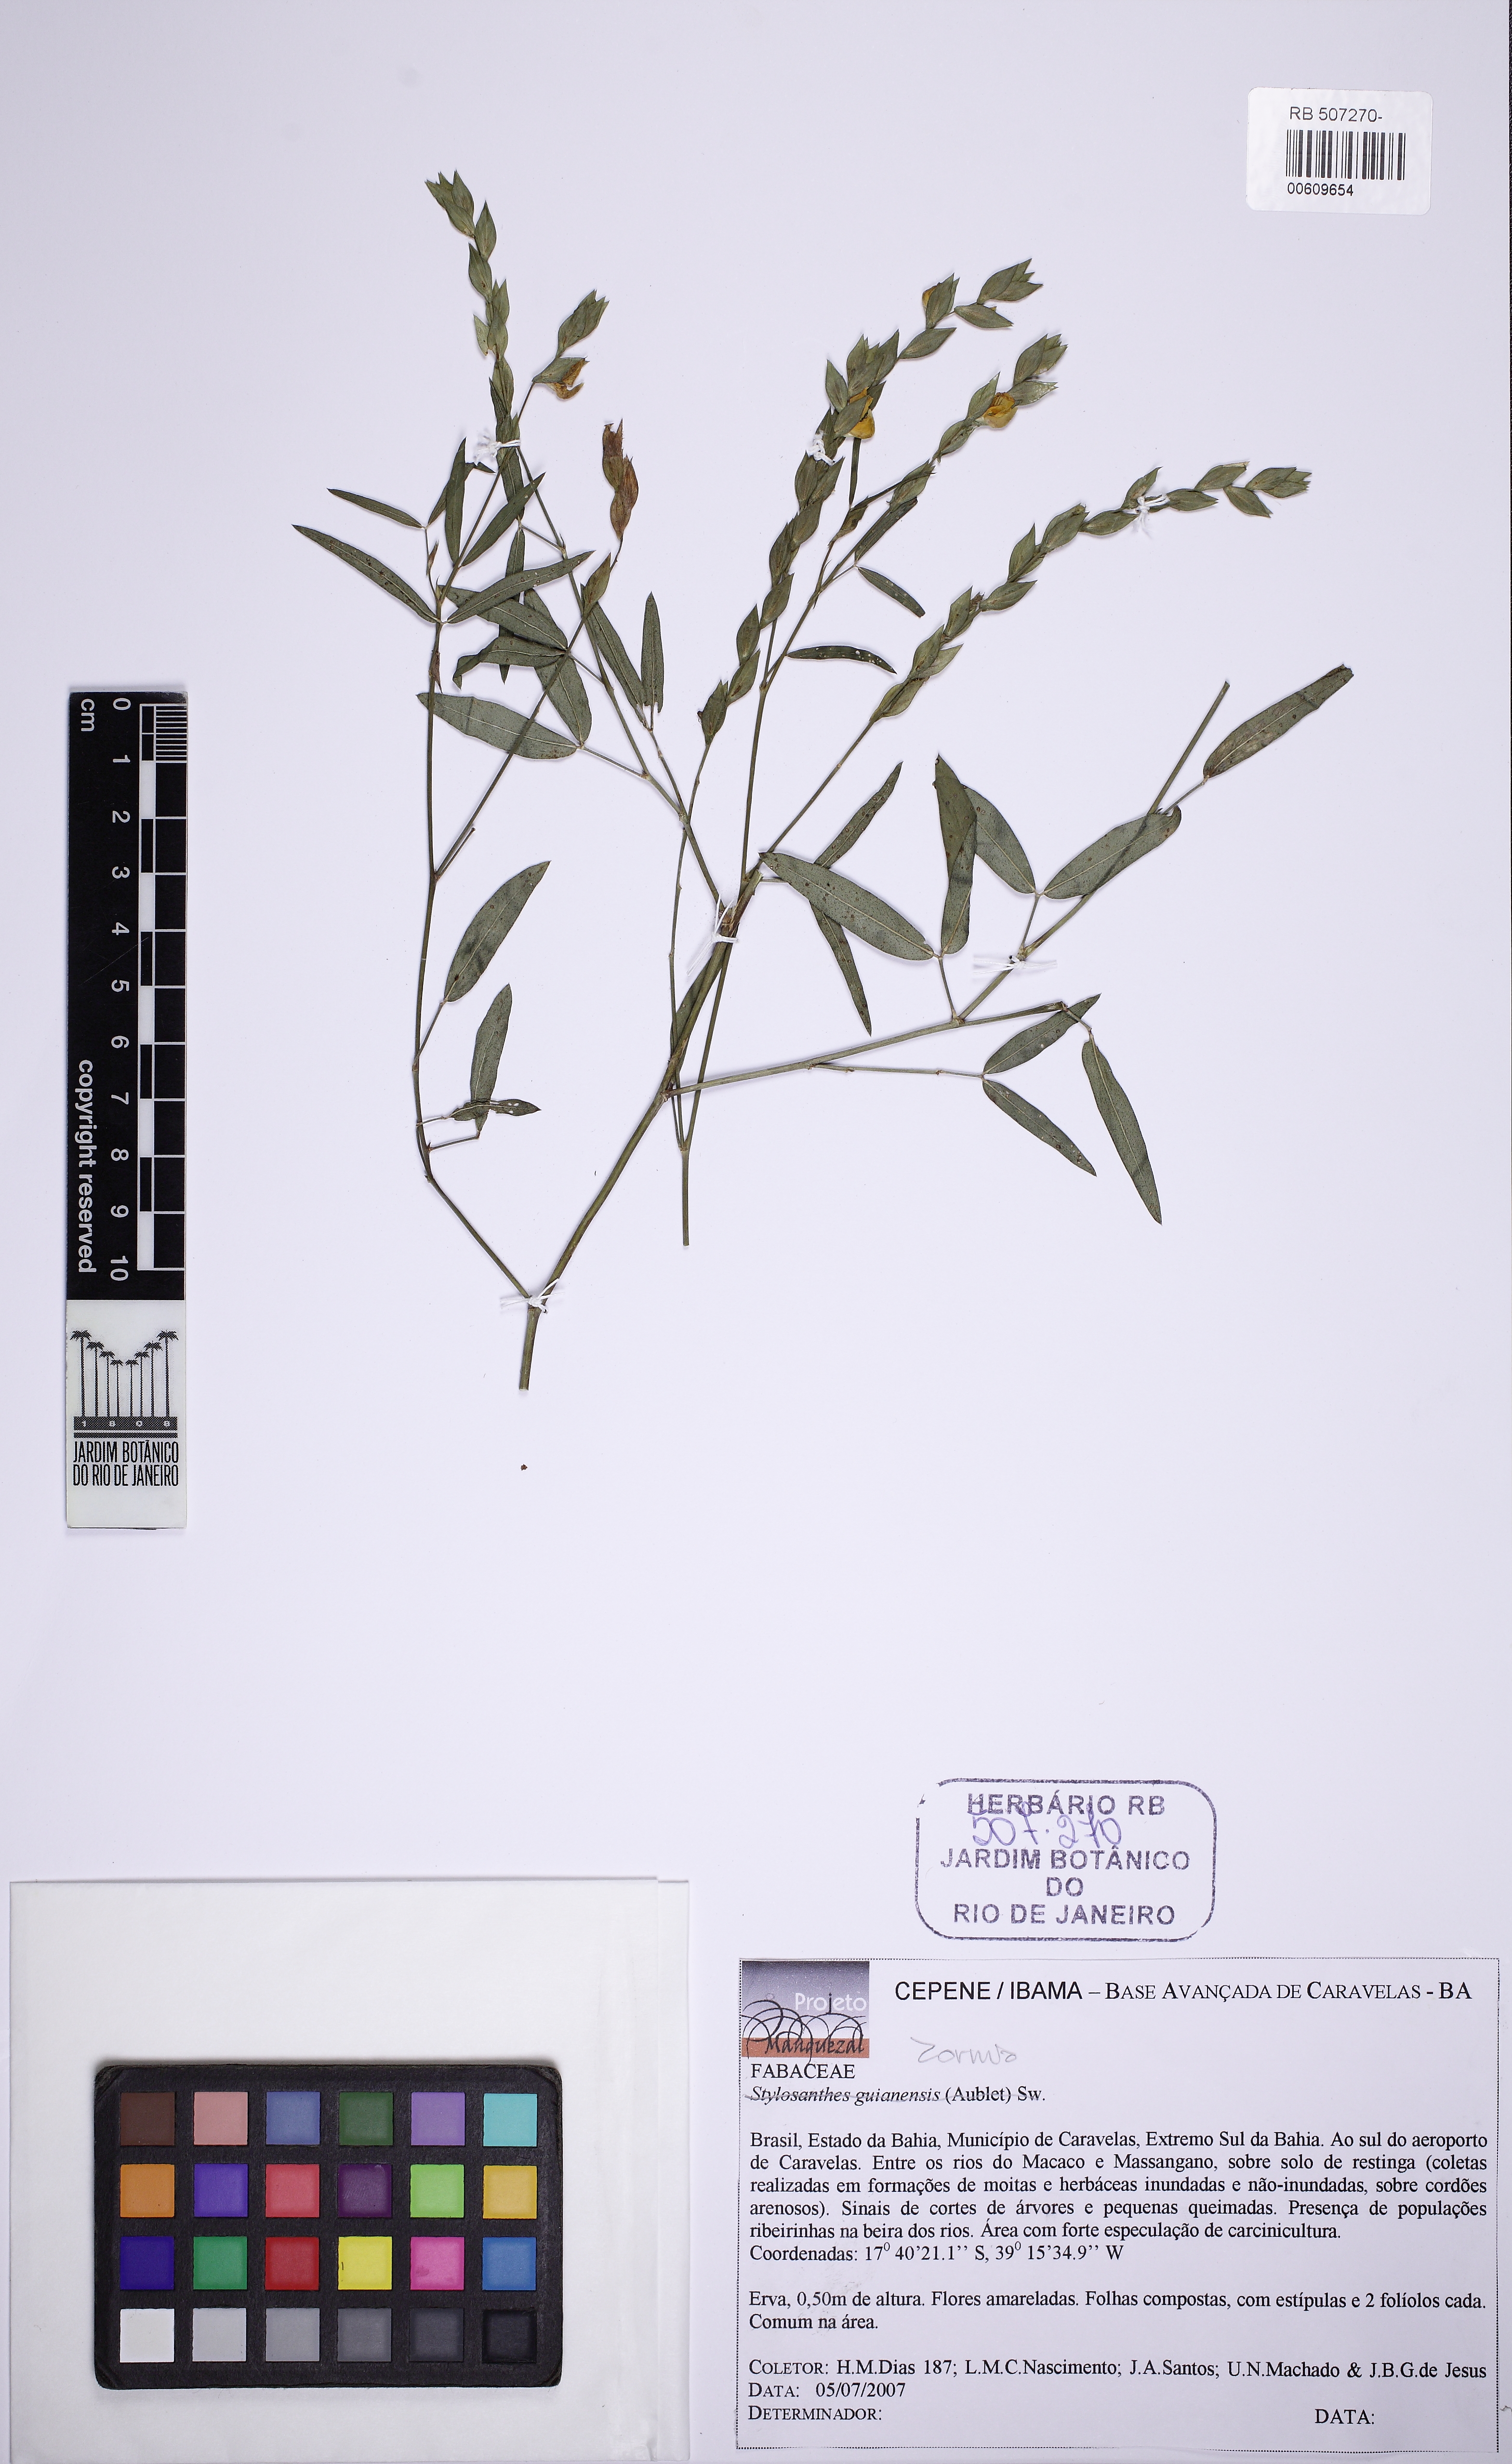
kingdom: Plantae
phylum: Tracheophyta
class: Magnoliopsida
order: Fabales
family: Fabaceae
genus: Zornia
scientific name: Zornia glabra
